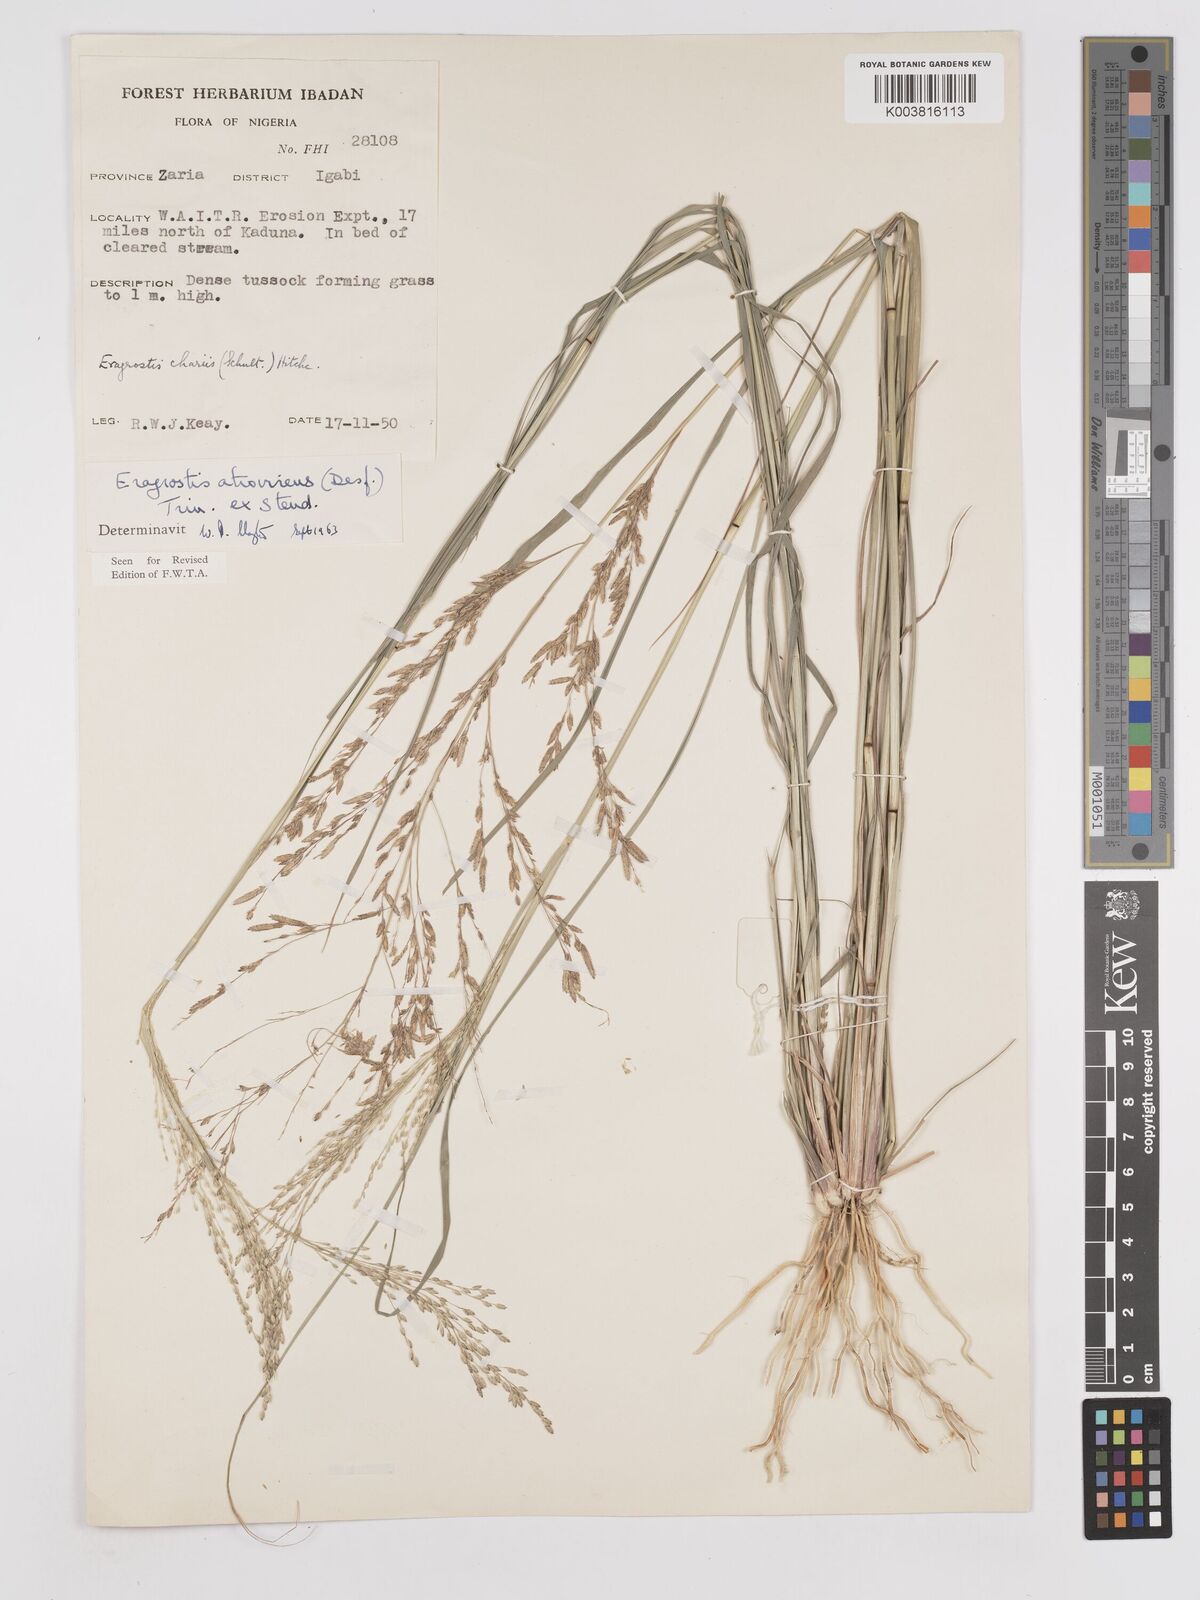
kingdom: Plantae
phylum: Tracheophyta
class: Liliopsida
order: Poales
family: Poaceae
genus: Eragrostis
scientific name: Eragrostis atrovirens
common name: Thalia lovegrass
